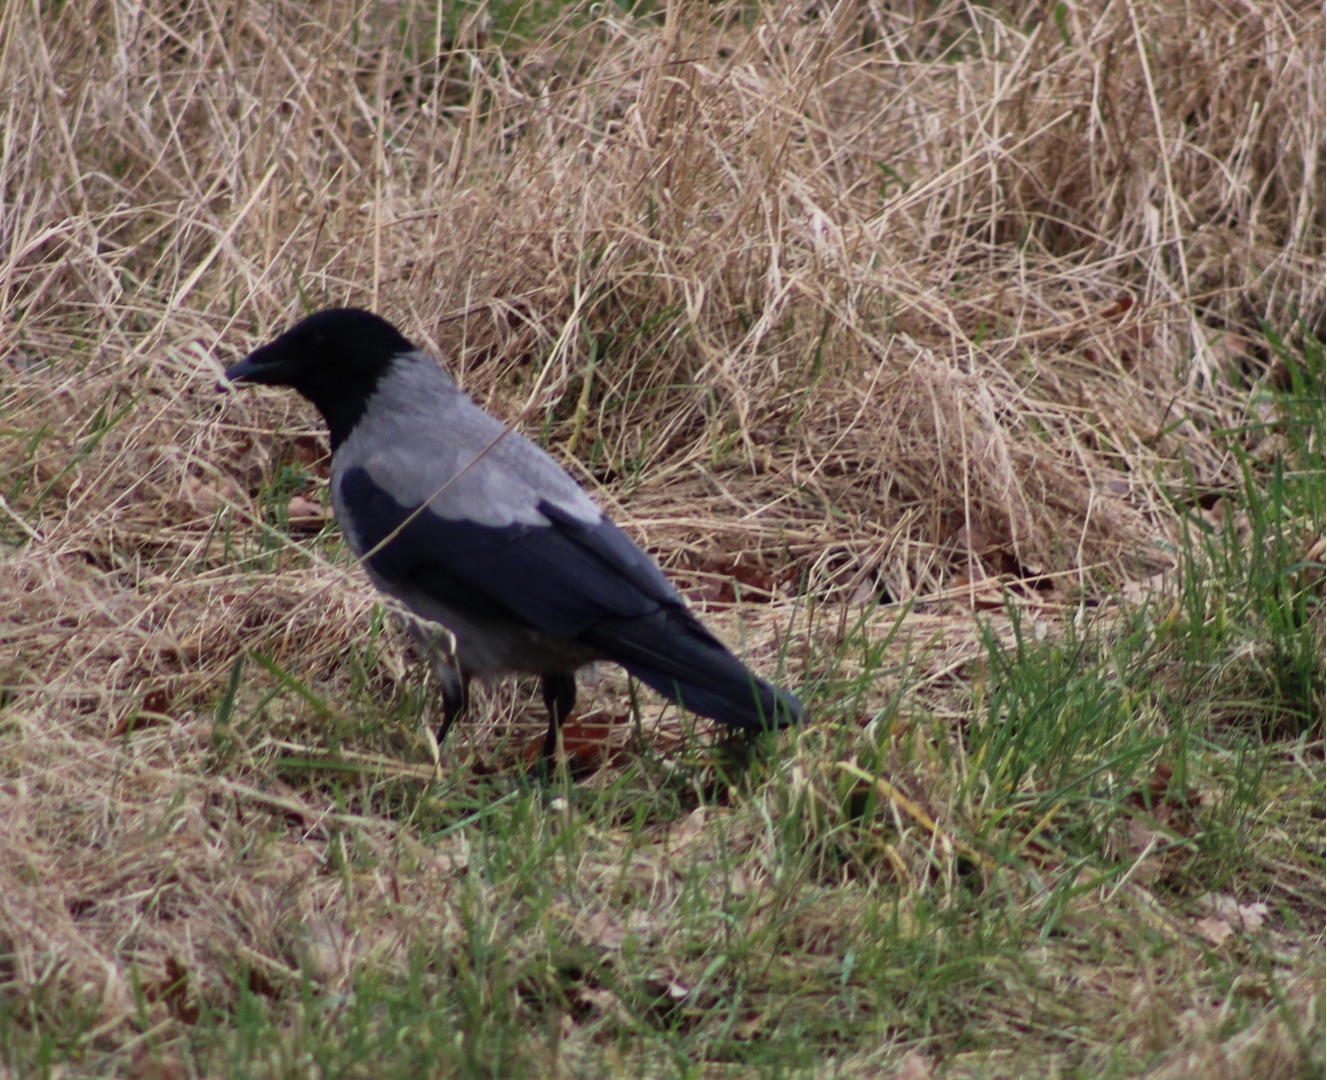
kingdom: Animalia
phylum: Chordata
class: Aves
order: Passeriformes
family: Corvidae
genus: Corvus
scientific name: Corvus cornix
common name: Gråkrage
